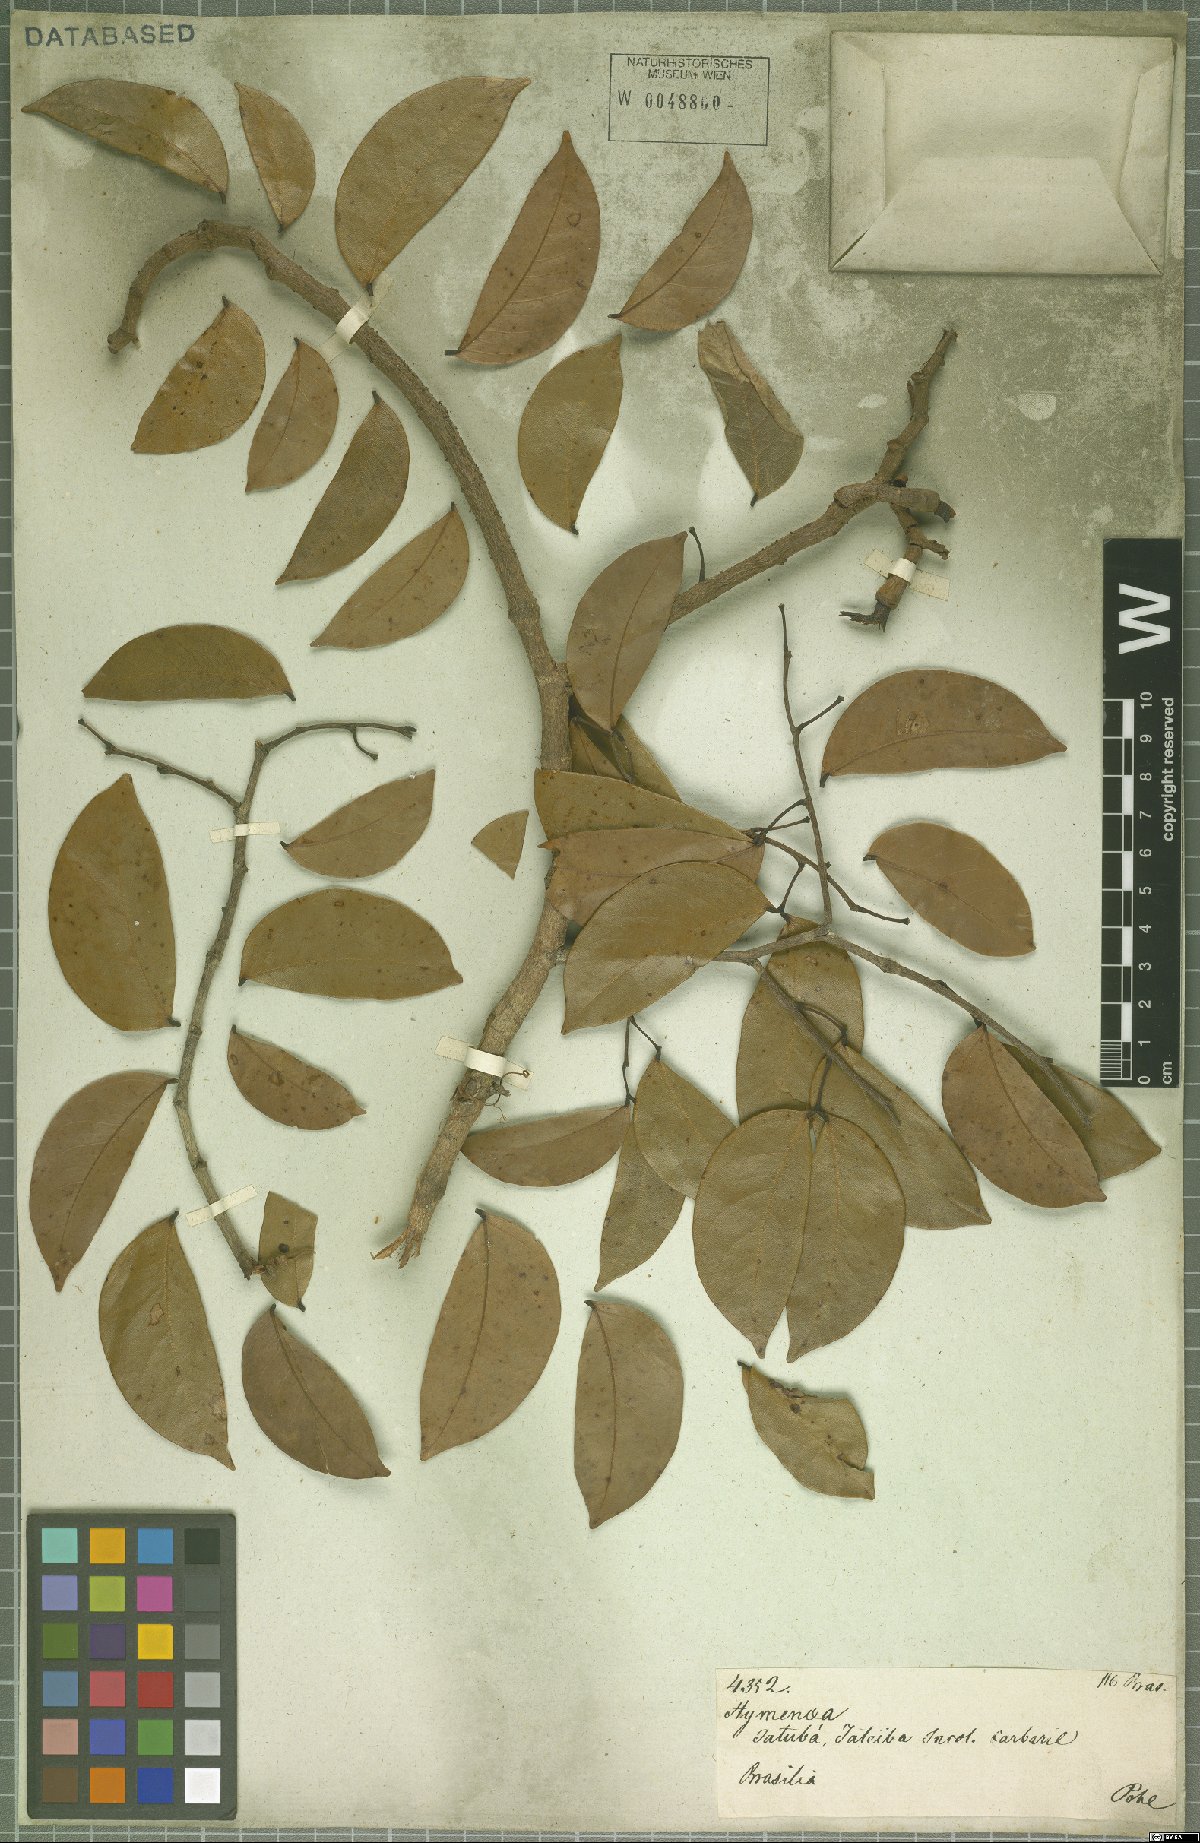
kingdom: Plantae
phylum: Tracheophyta
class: Magnoliopsida
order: Fabales
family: Fabaceae
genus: Hymenaea
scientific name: Hymenaea courbaril
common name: Brazilian copal
